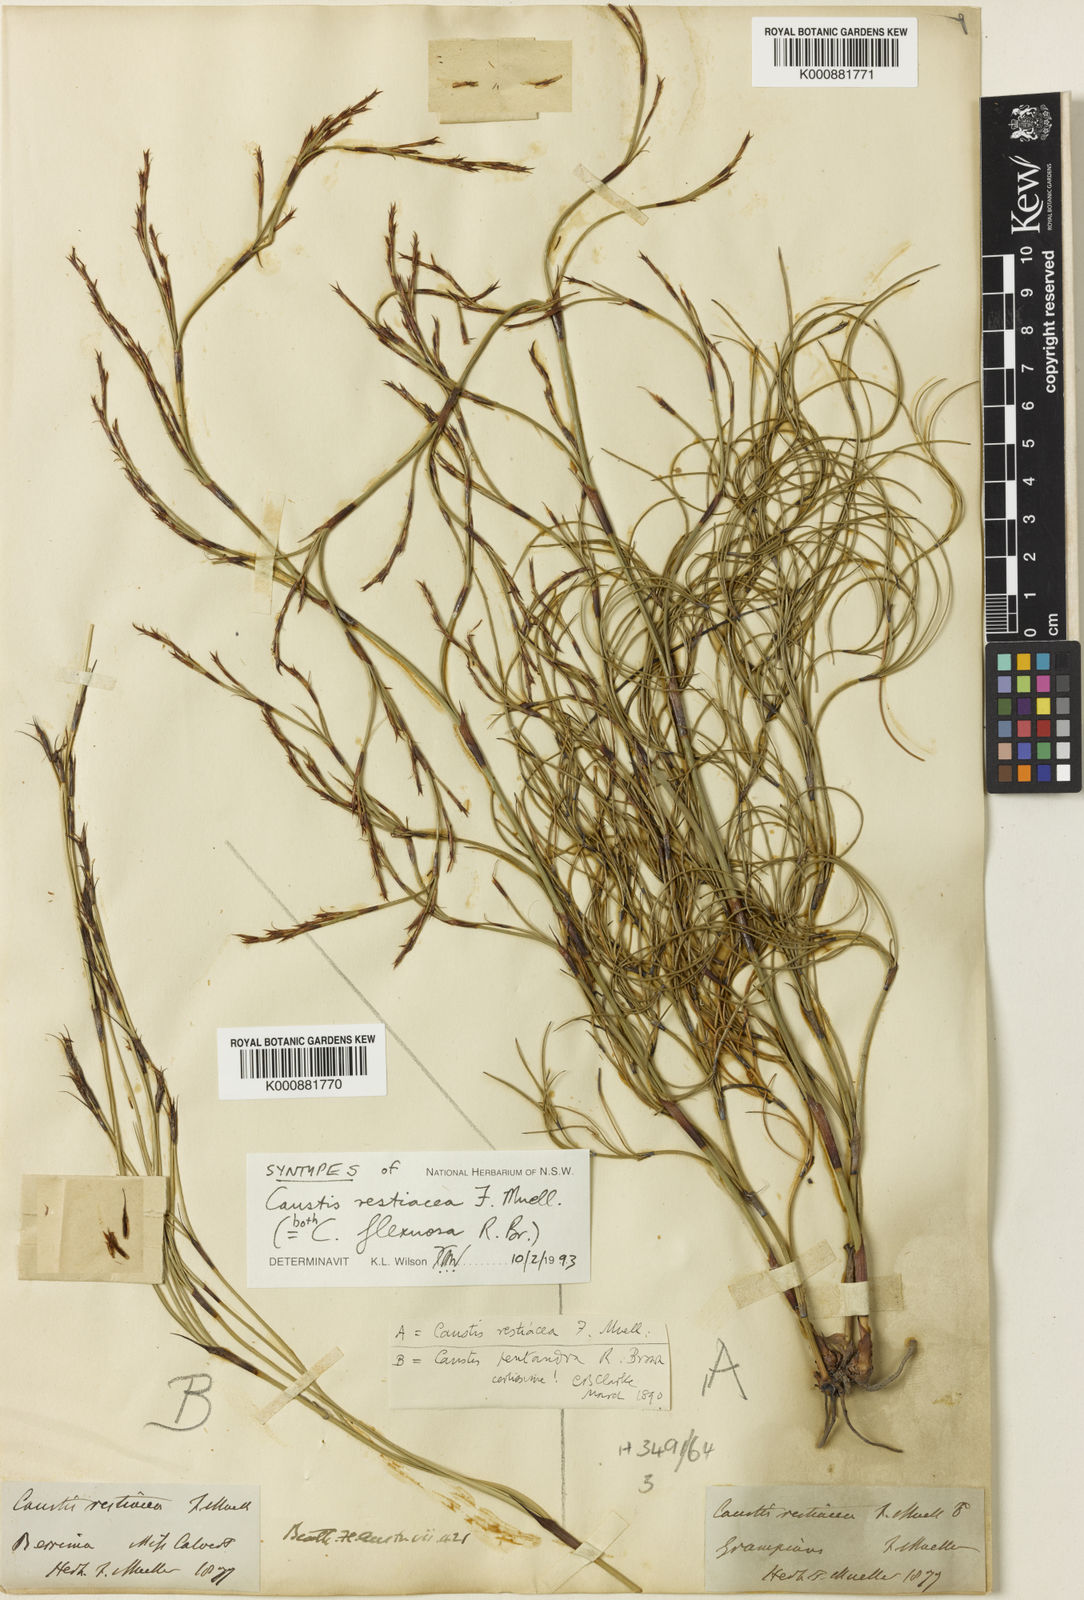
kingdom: Plantae
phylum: Tracheophyta
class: Liliopsida
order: Poales
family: Cyperaceae
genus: Caustis
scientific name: Caustis flexuosa
